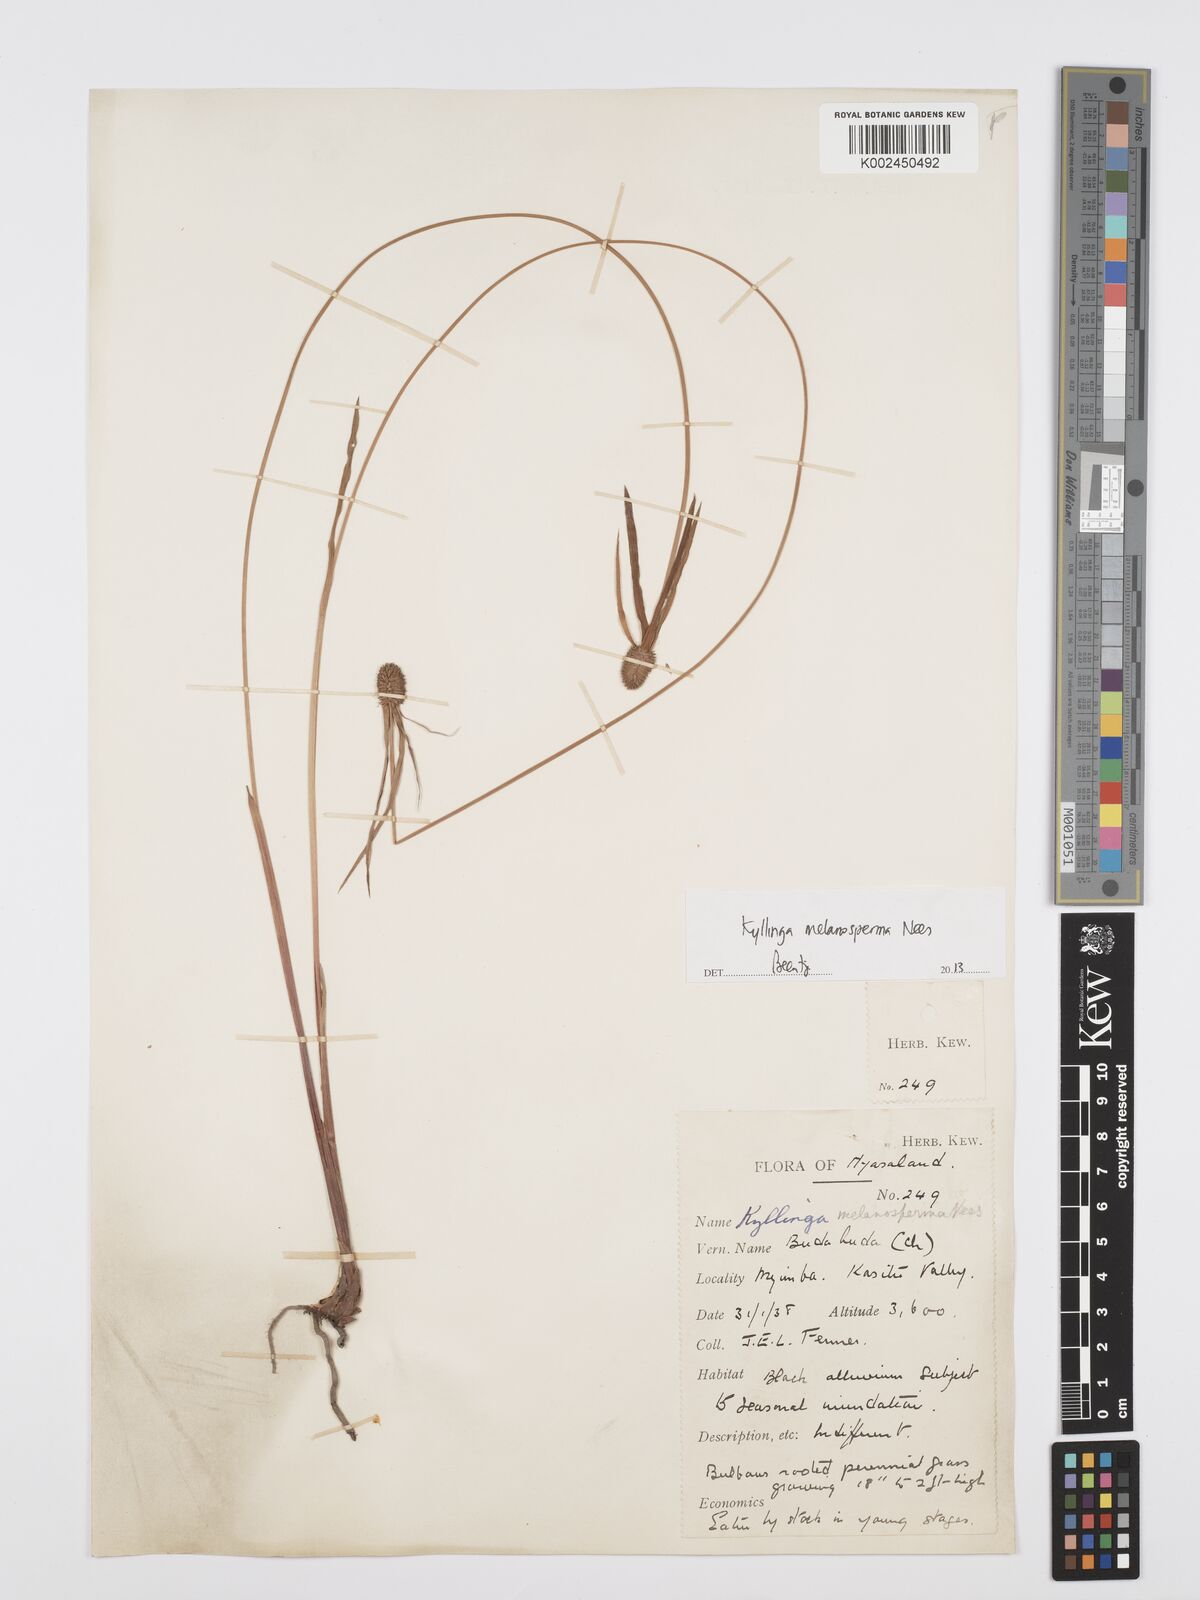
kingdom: Plantae
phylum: Tracheophyta
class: Liliopsida
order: Poales
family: Cyperaceae
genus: Cyperus
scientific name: Cyperus melanospermus
